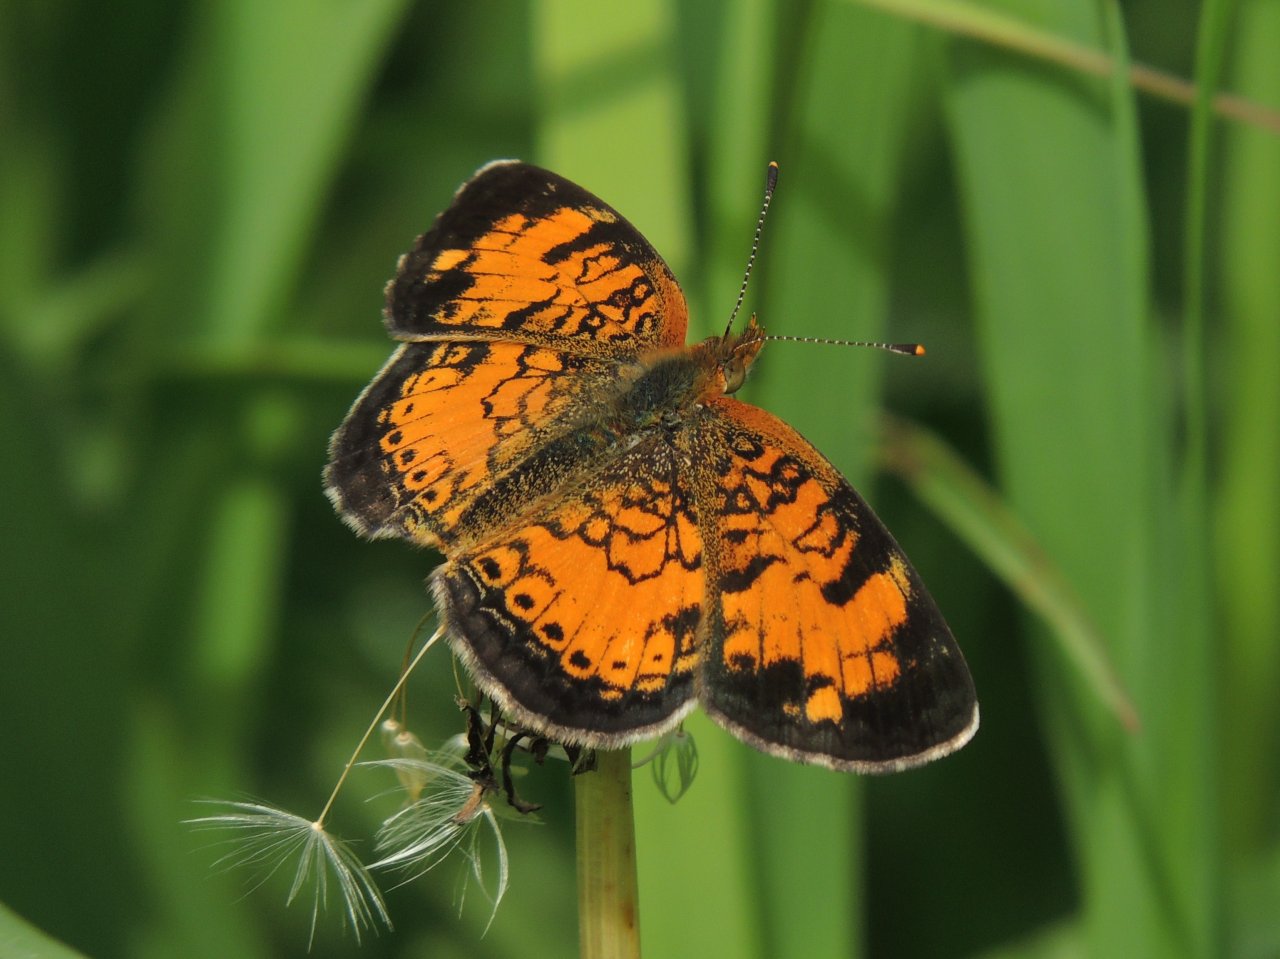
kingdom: Animalia
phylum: Arthropoda
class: Insecta
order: Lepidoptera
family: Nymphalidae
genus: Phyciodes
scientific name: Phyciodes tharos
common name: Northern Crescent
